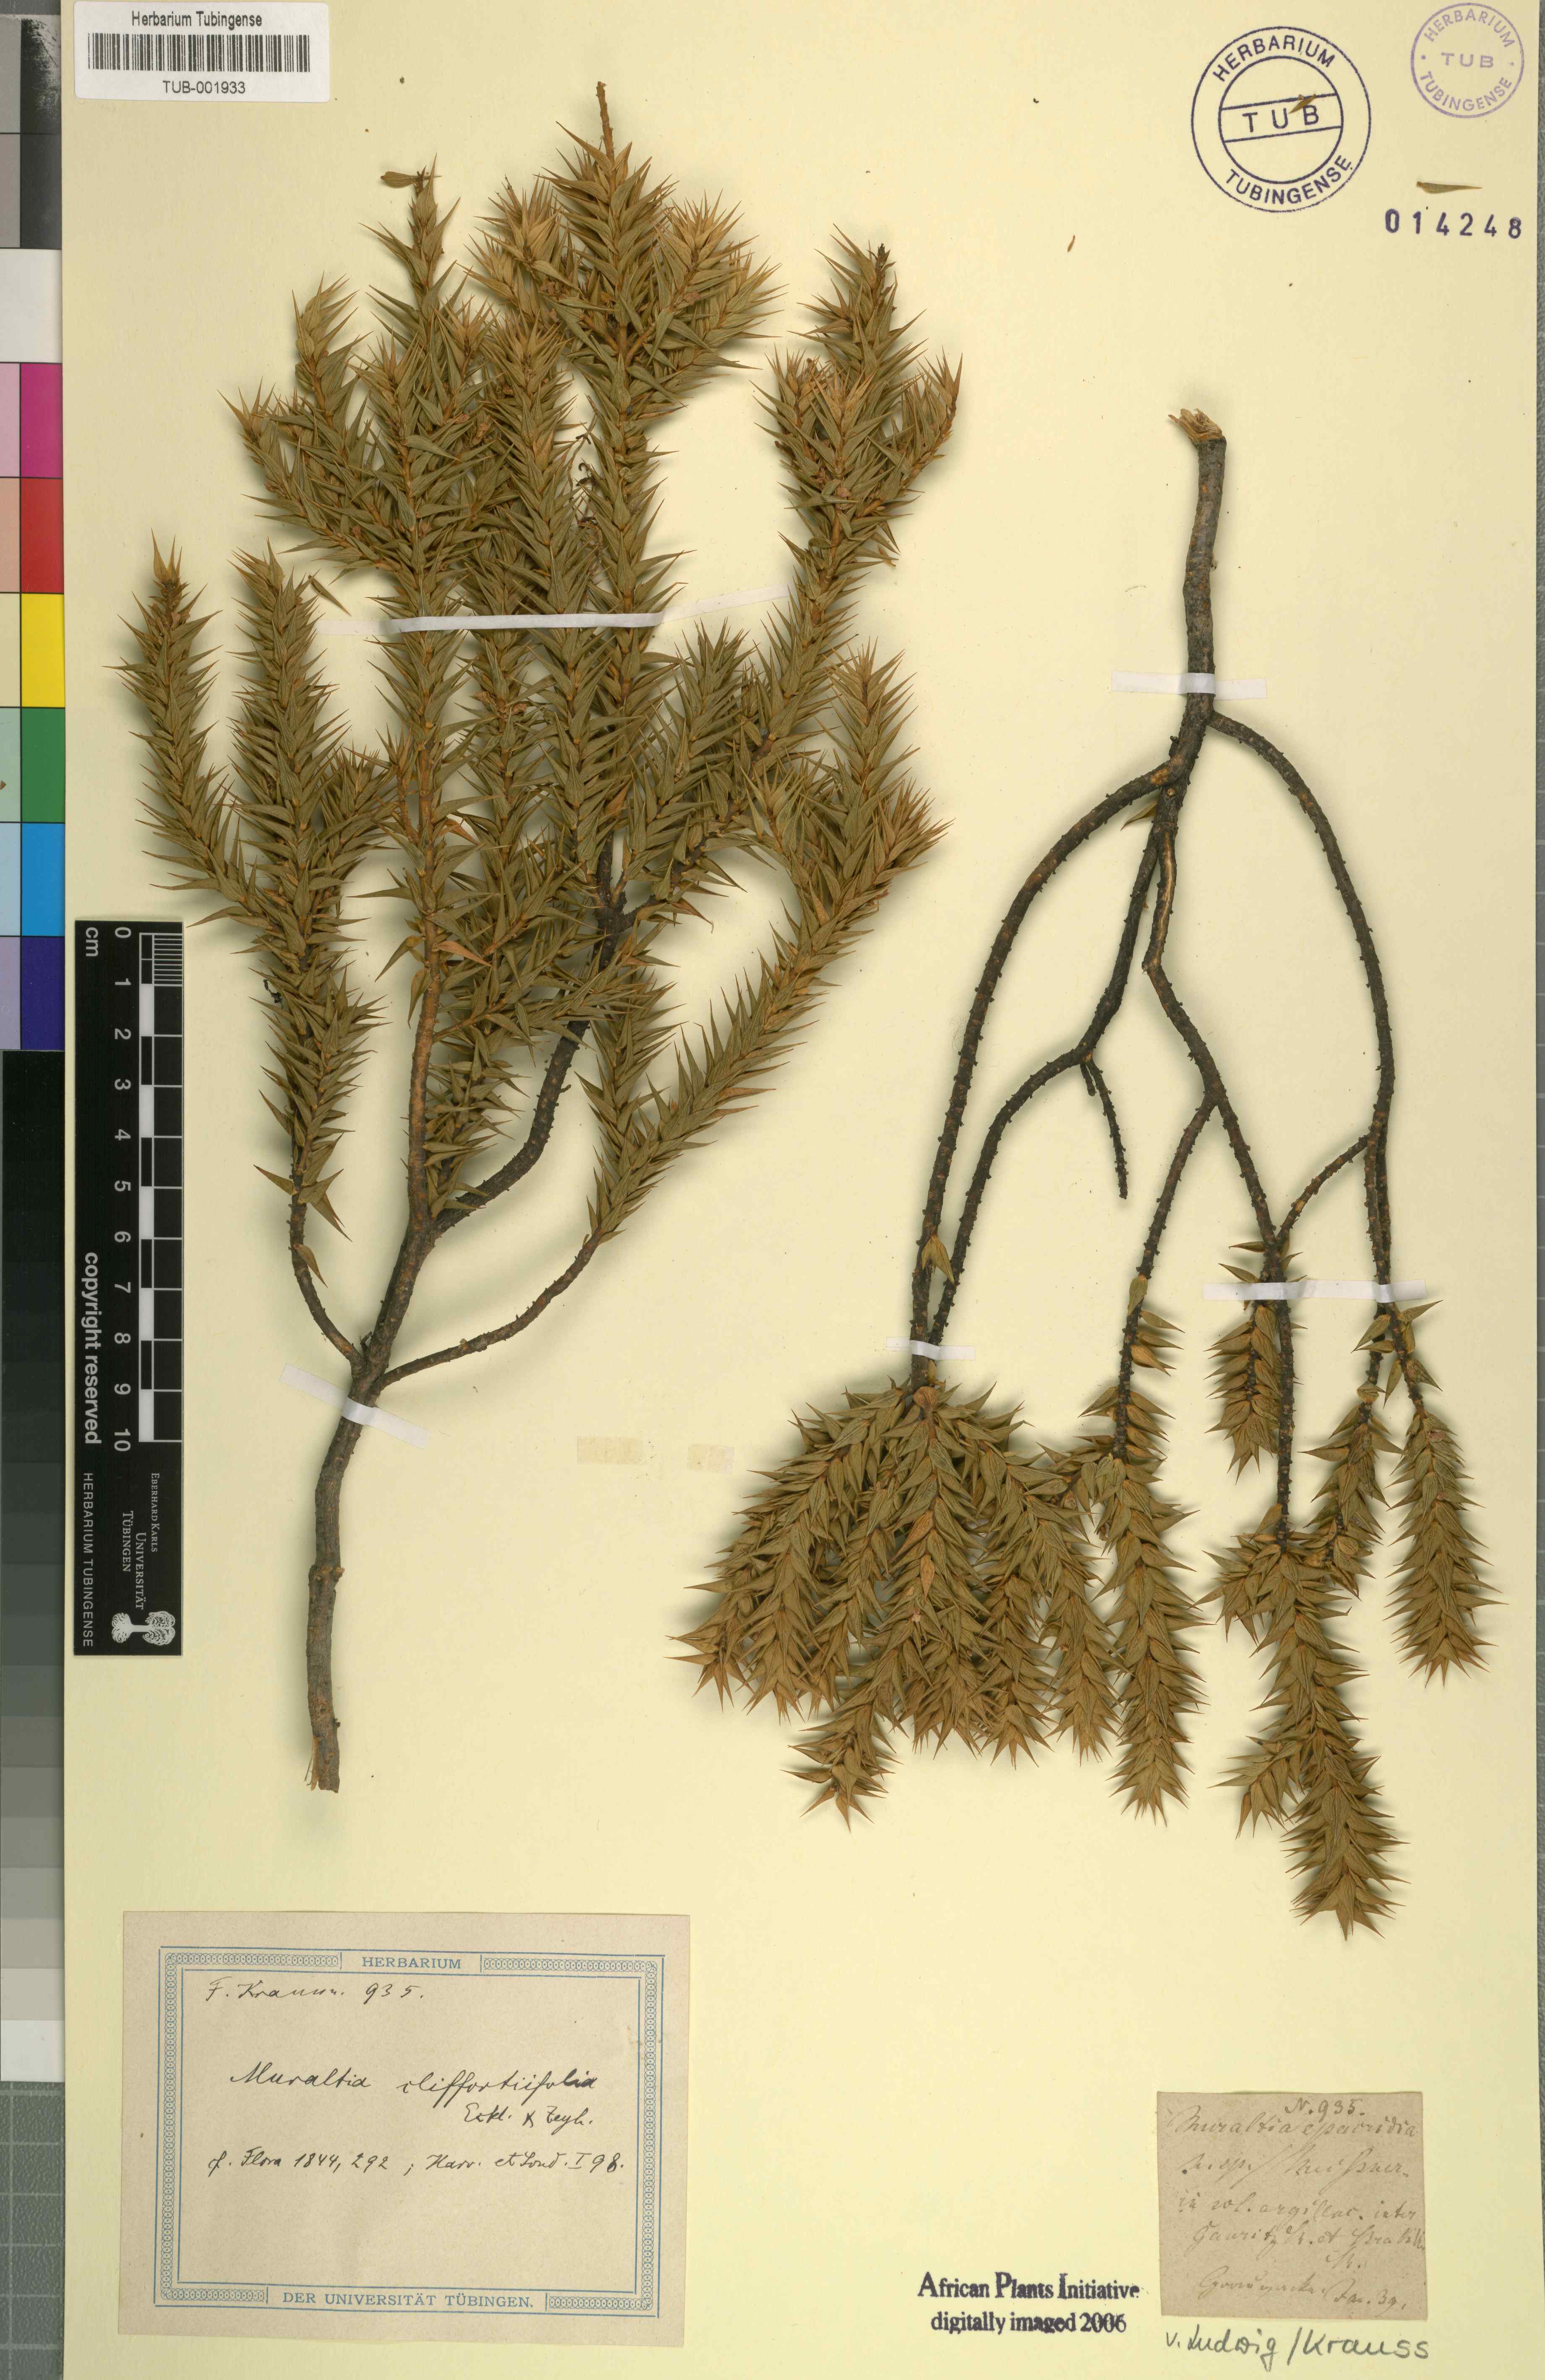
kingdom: Plantae
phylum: Tracheophyta
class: Magnoliopsida
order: Fabales
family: Polygalaceae
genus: Muraltia
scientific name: Muraltia
